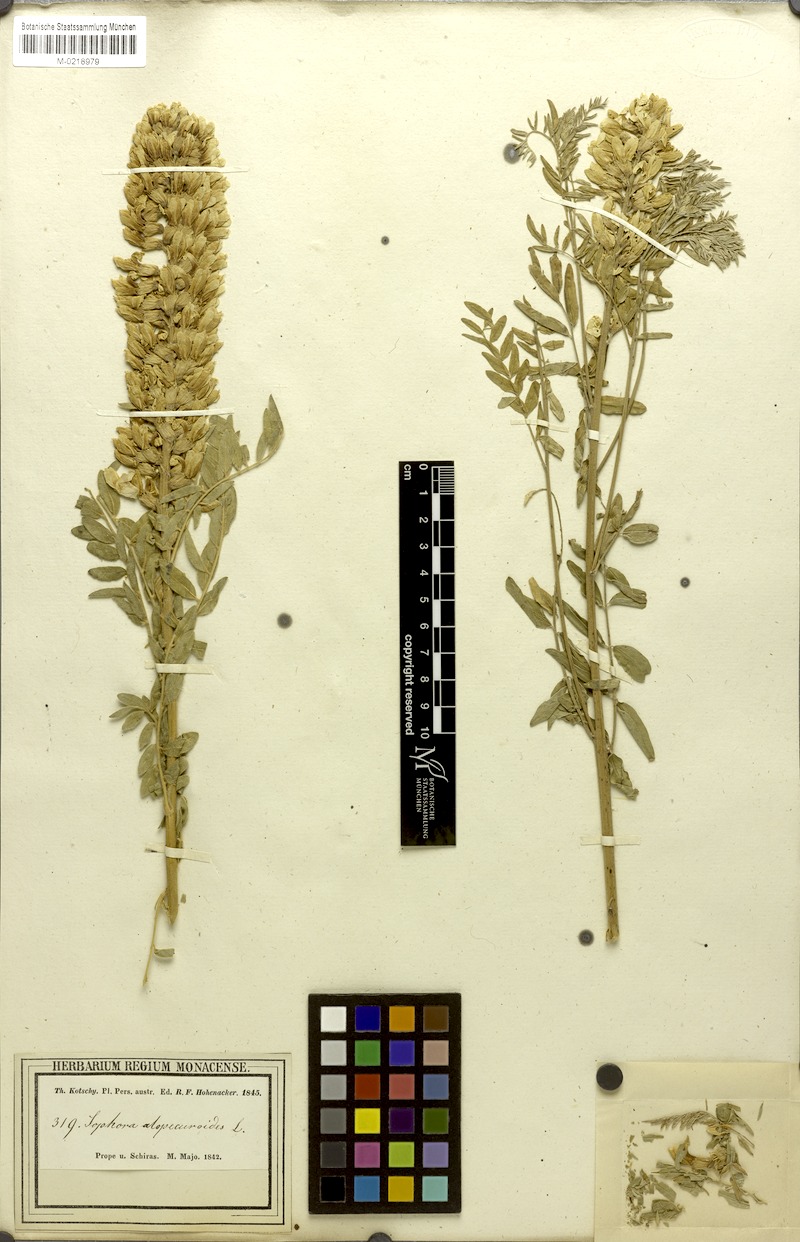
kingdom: Plantae
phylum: Tracheophyta
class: Magnoliopsida
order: Fabales
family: Fabaceae
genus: Sophora
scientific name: Sophora alopecuroides
